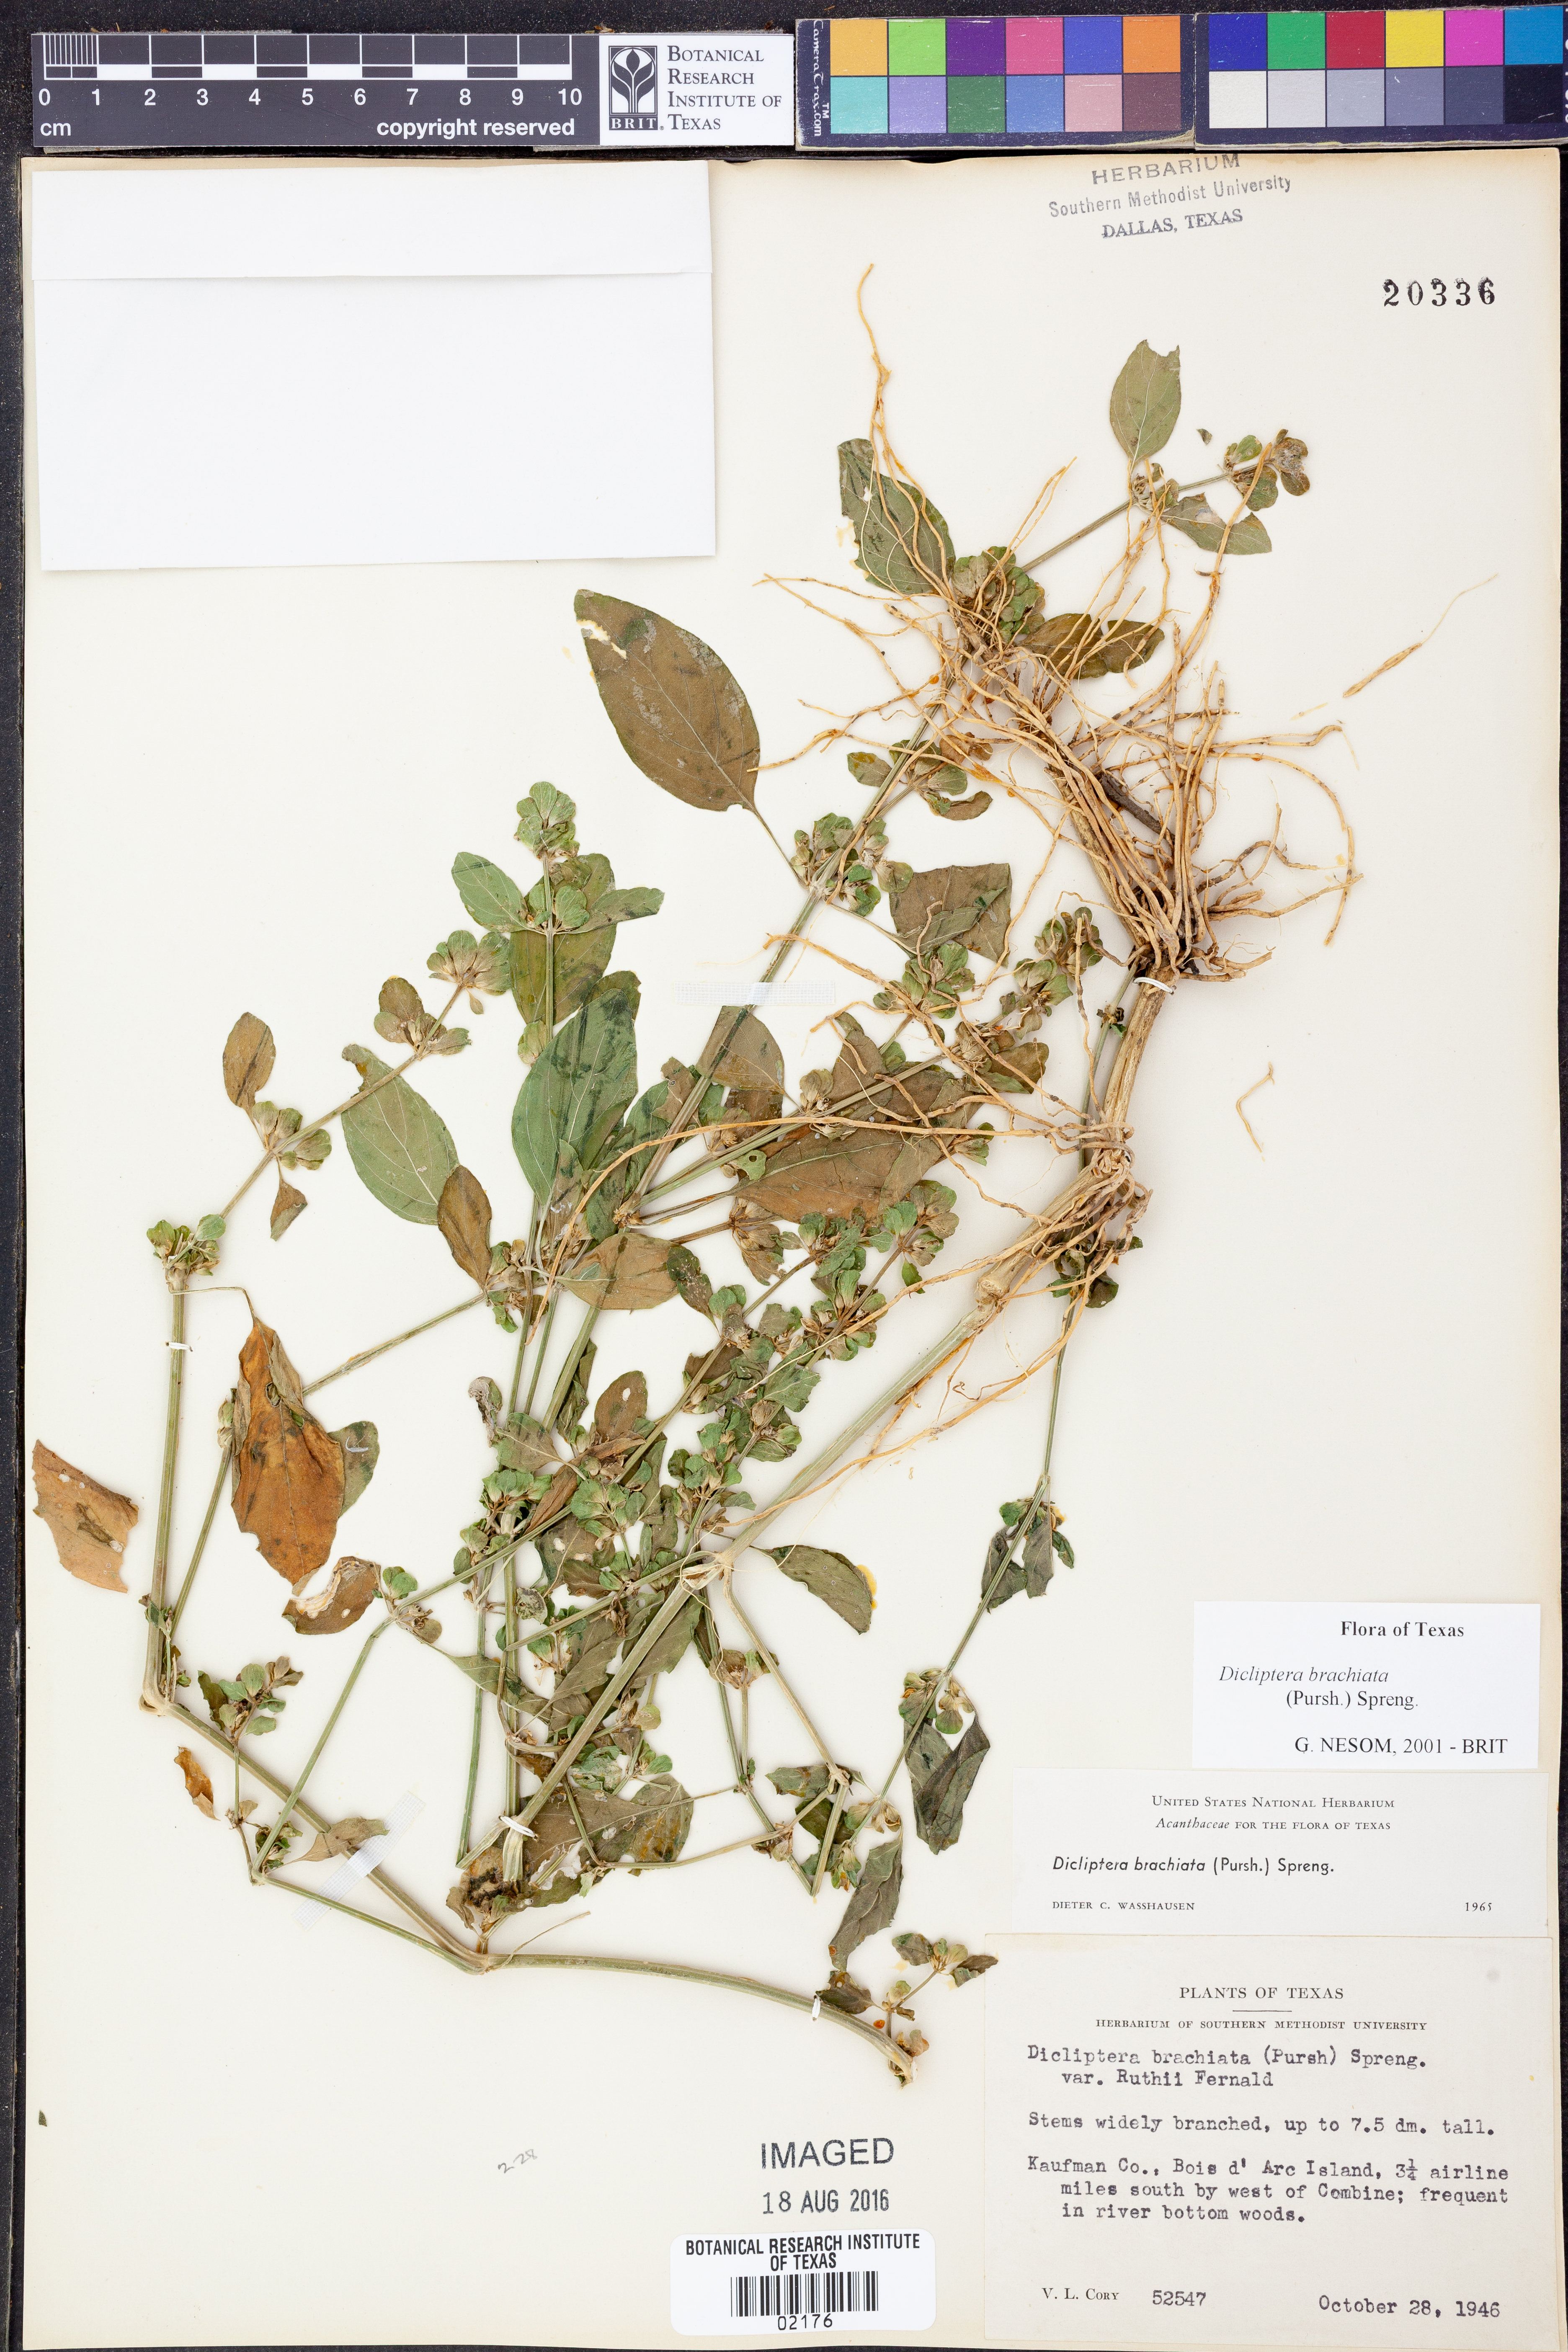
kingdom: Plantae
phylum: Tracheophyta
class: Magnoliopsida
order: Lamiales
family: Acanthaceae
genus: Dicliptera
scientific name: Dicliptera brachiata
